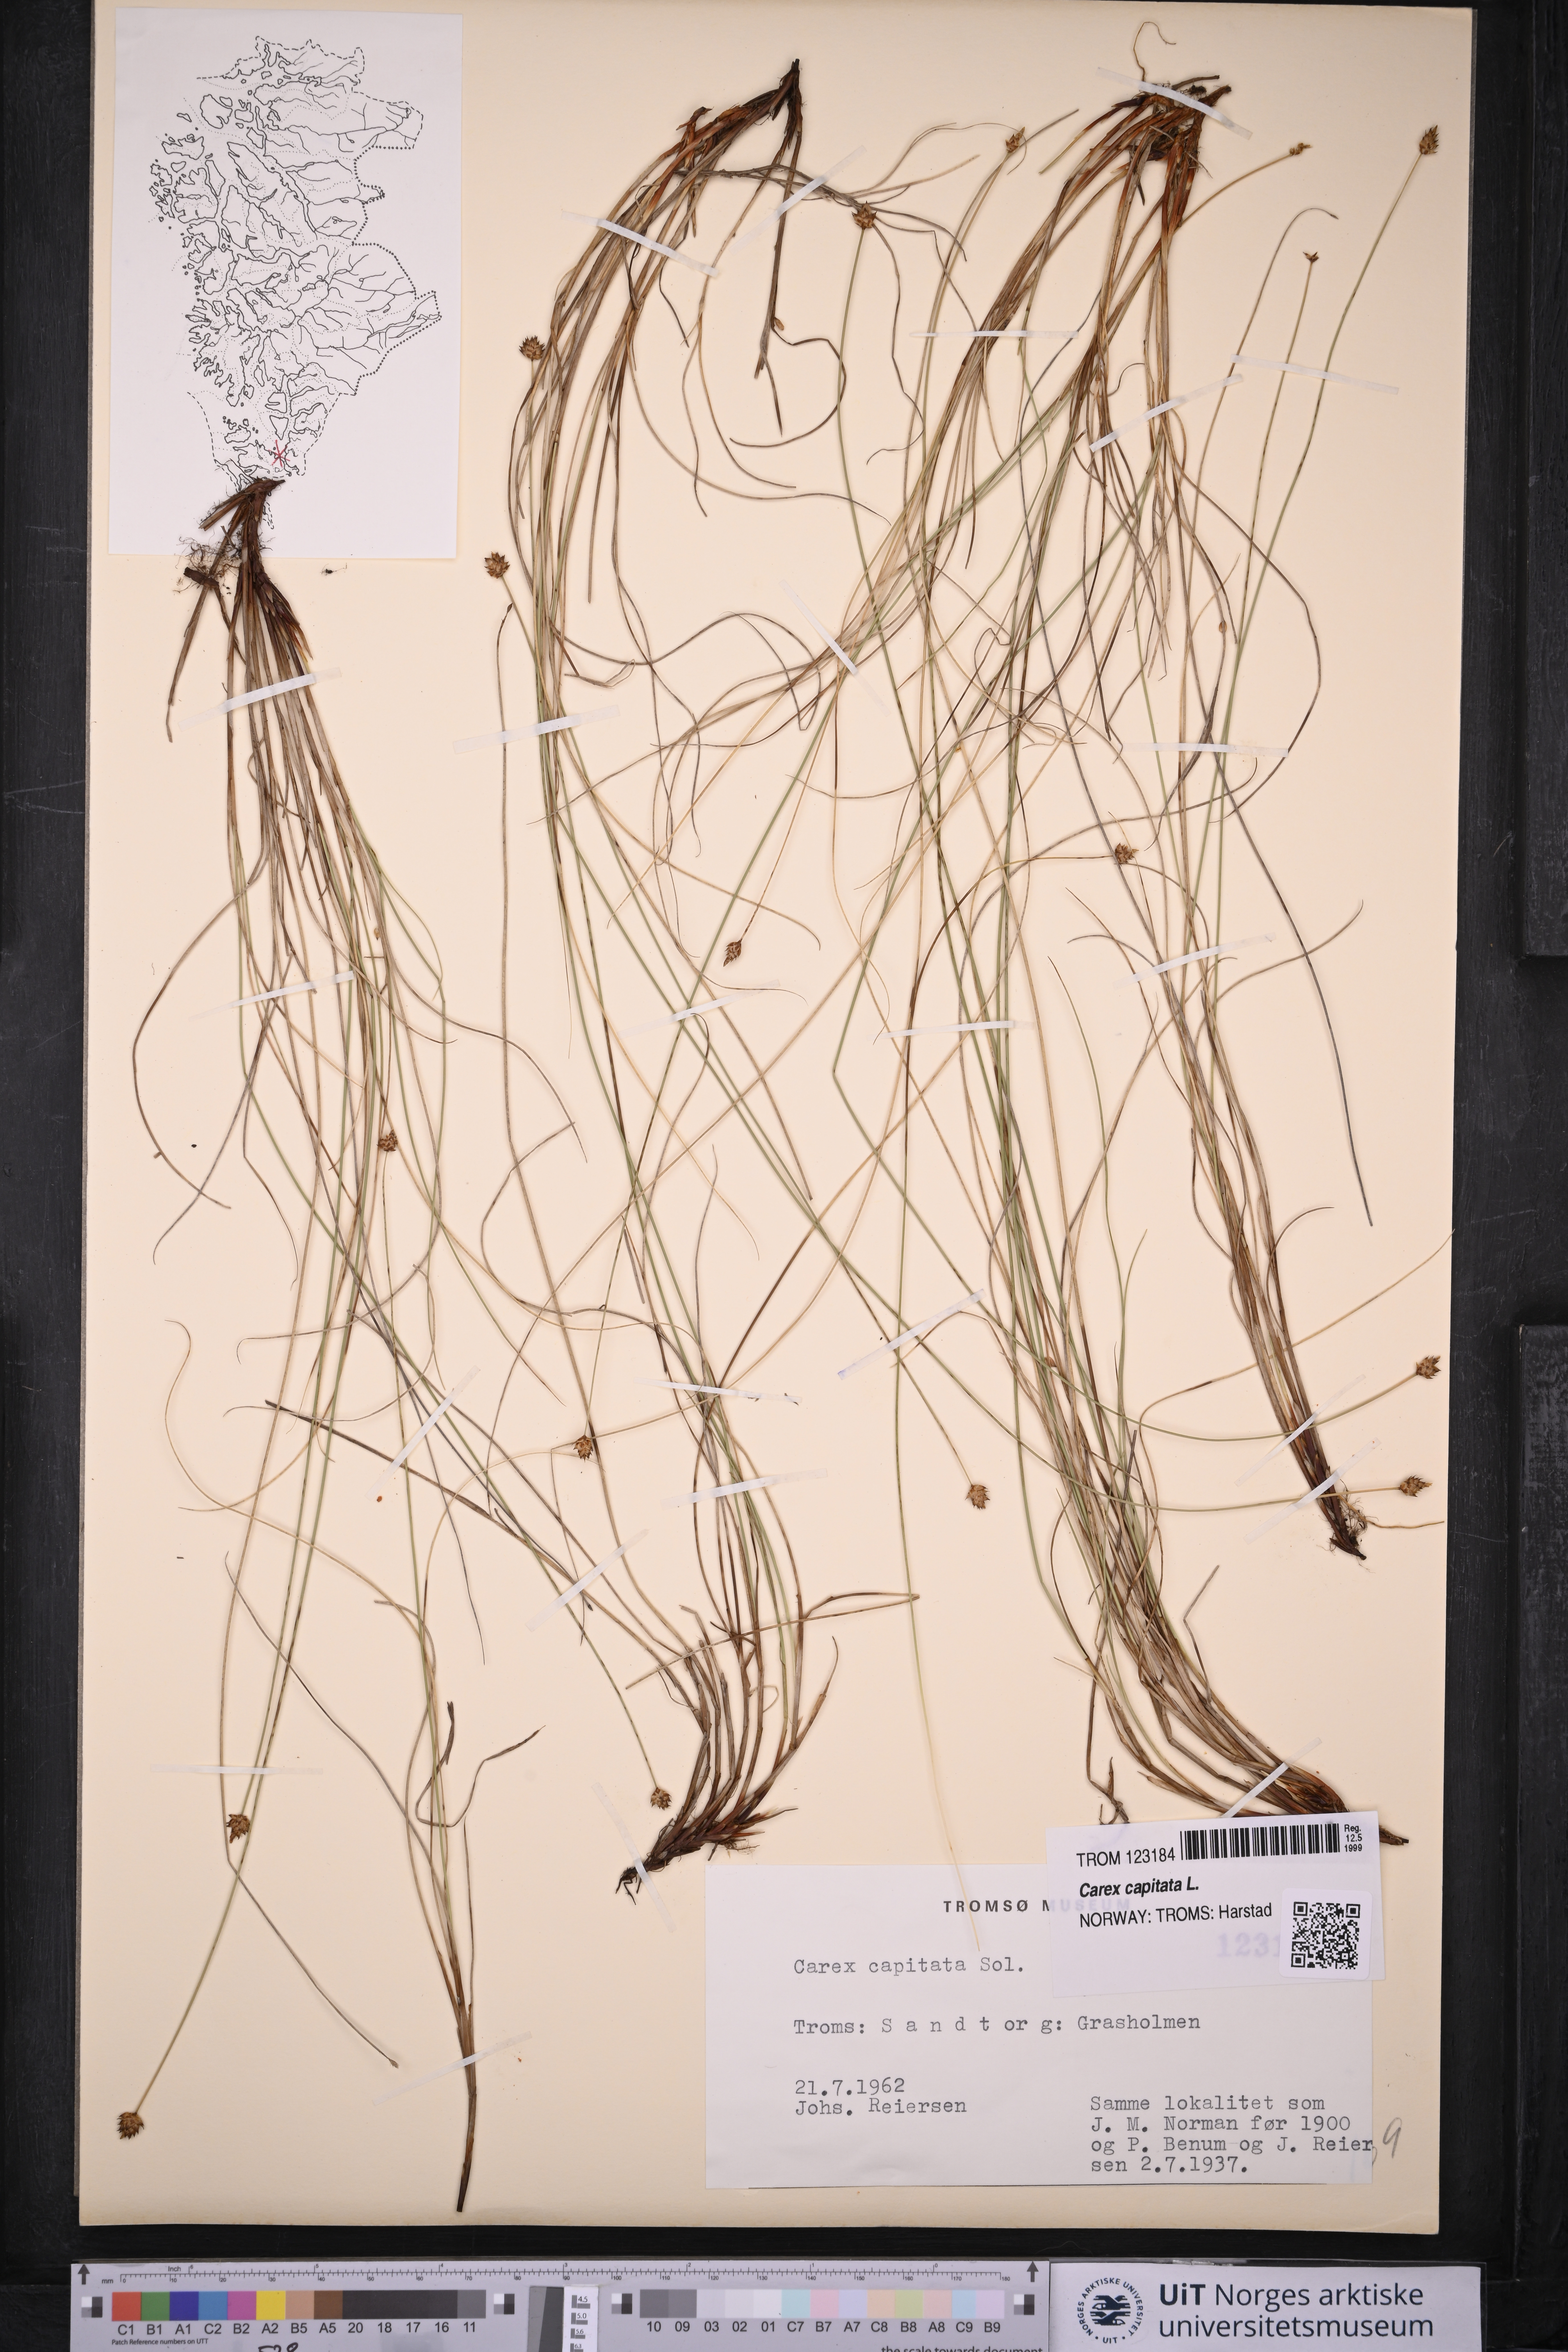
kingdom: Plantae
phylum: Tracheophyta
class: Liliopsida
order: Poales
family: Cyperaceae
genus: Carex
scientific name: Carex capitata
